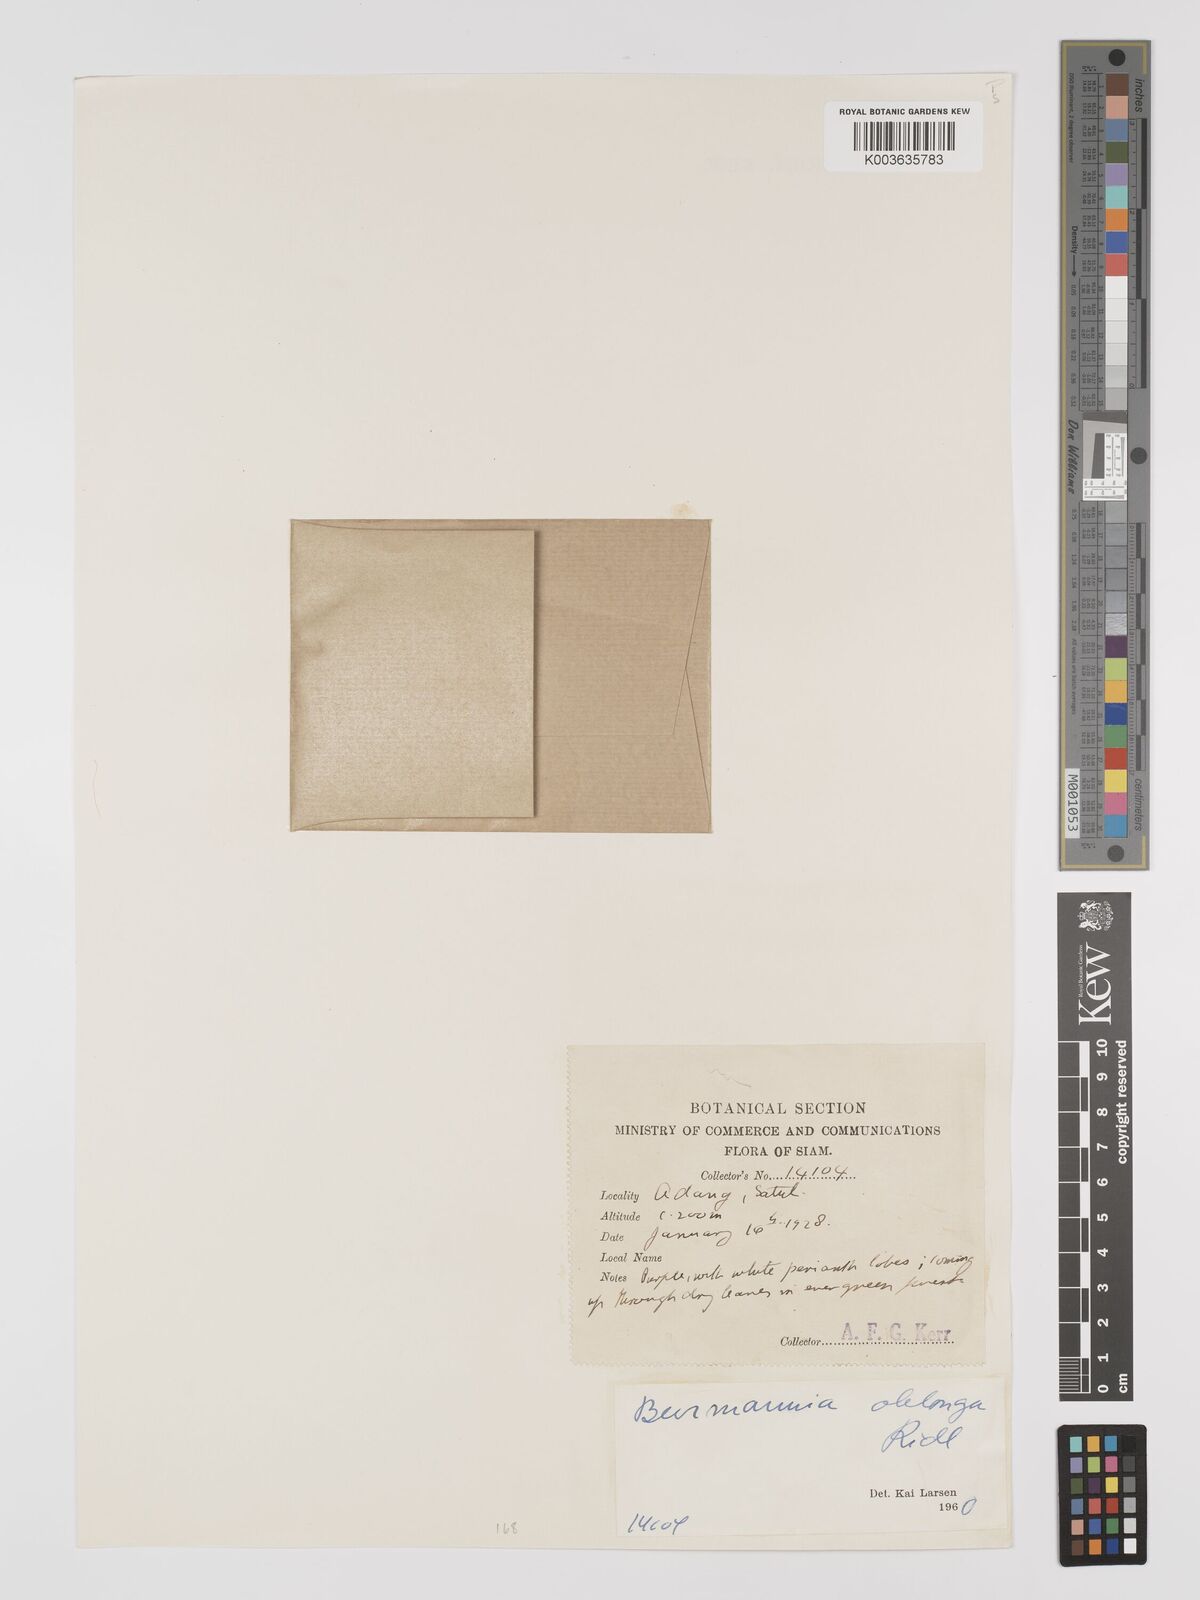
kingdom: Plantae
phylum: Tracheophyta
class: Liliopsida
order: Dioscoreales
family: Burmanniaceae
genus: Burmannia
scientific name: Burmannia oblonga
